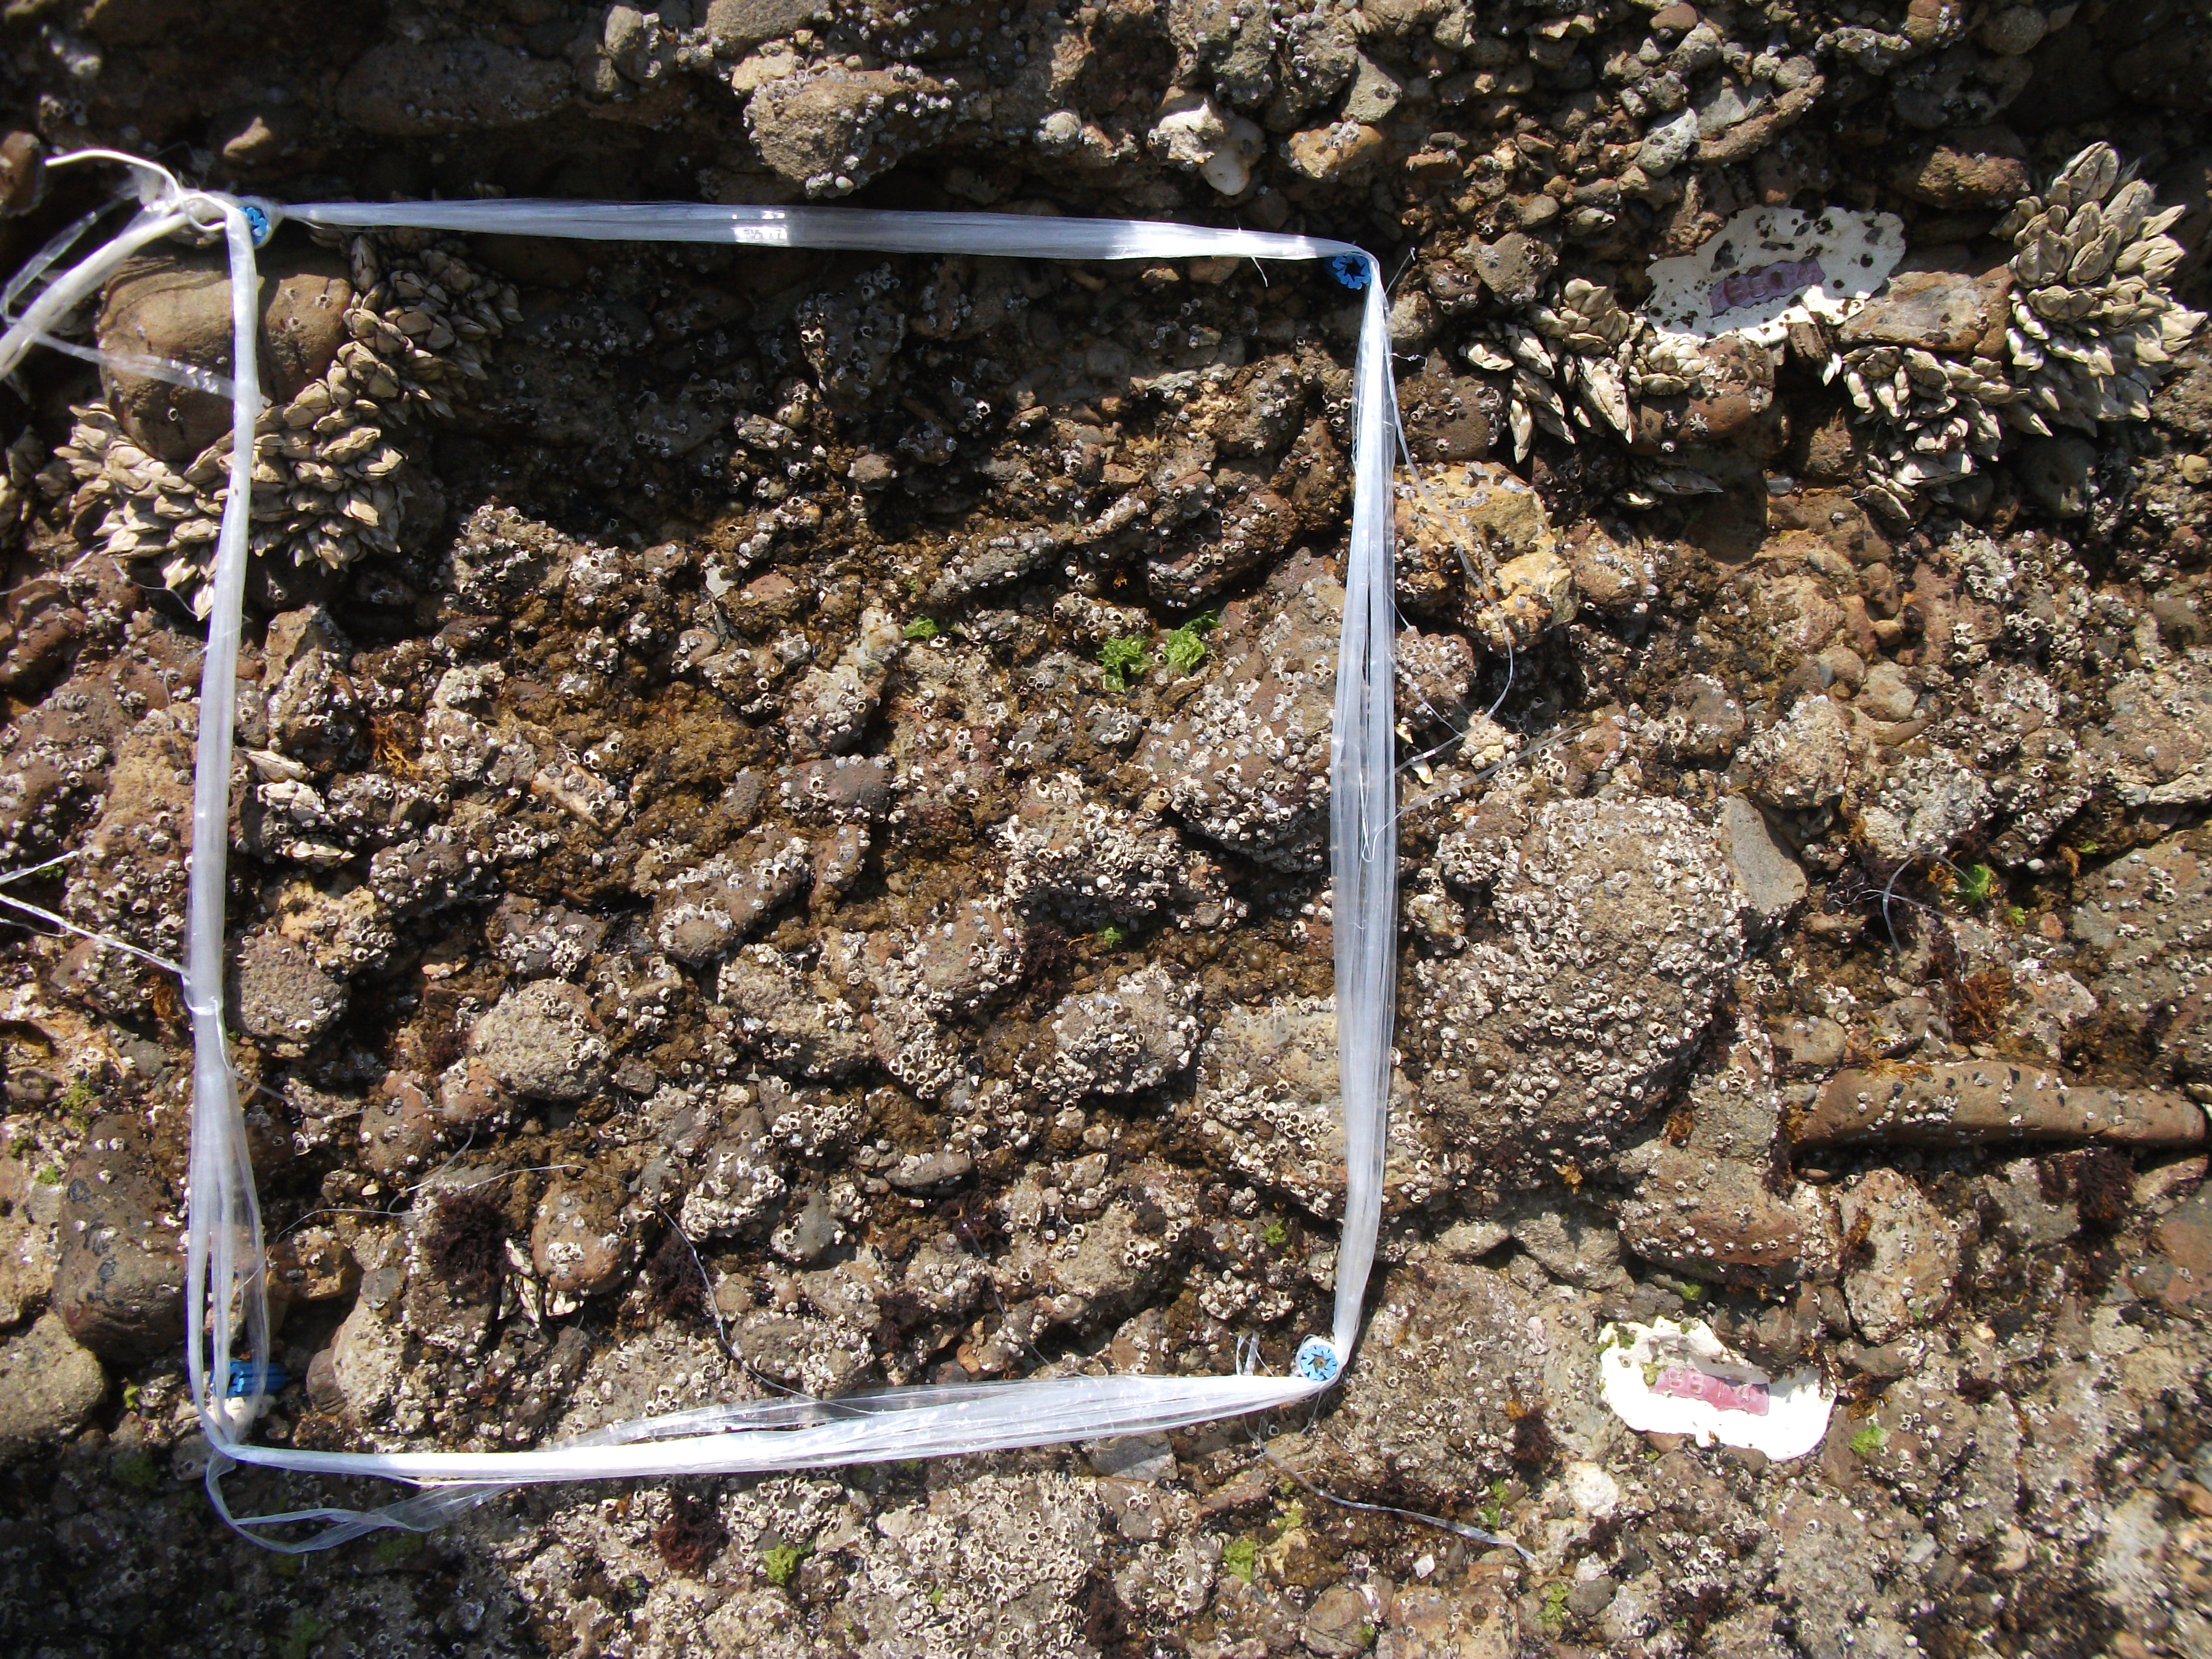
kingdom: Animalia
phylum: Arthropoda
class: Maxillopoda
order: Sessilia
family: Chthamalidae
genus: Chthamalus
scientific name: Chthamalus challengeri
